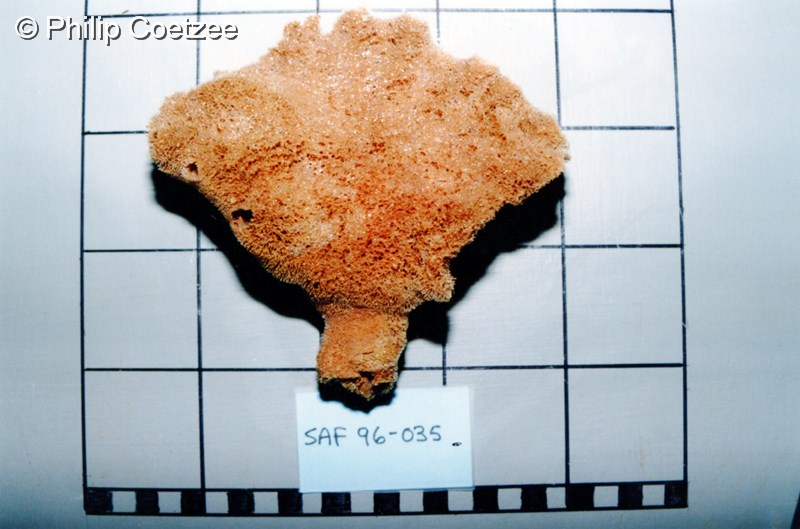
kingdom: Animalia
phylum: Porifera
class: Demospongiae
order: Poecilosclerida
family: Isodictyidae
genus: Isodictya
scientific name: Isodictya alata
